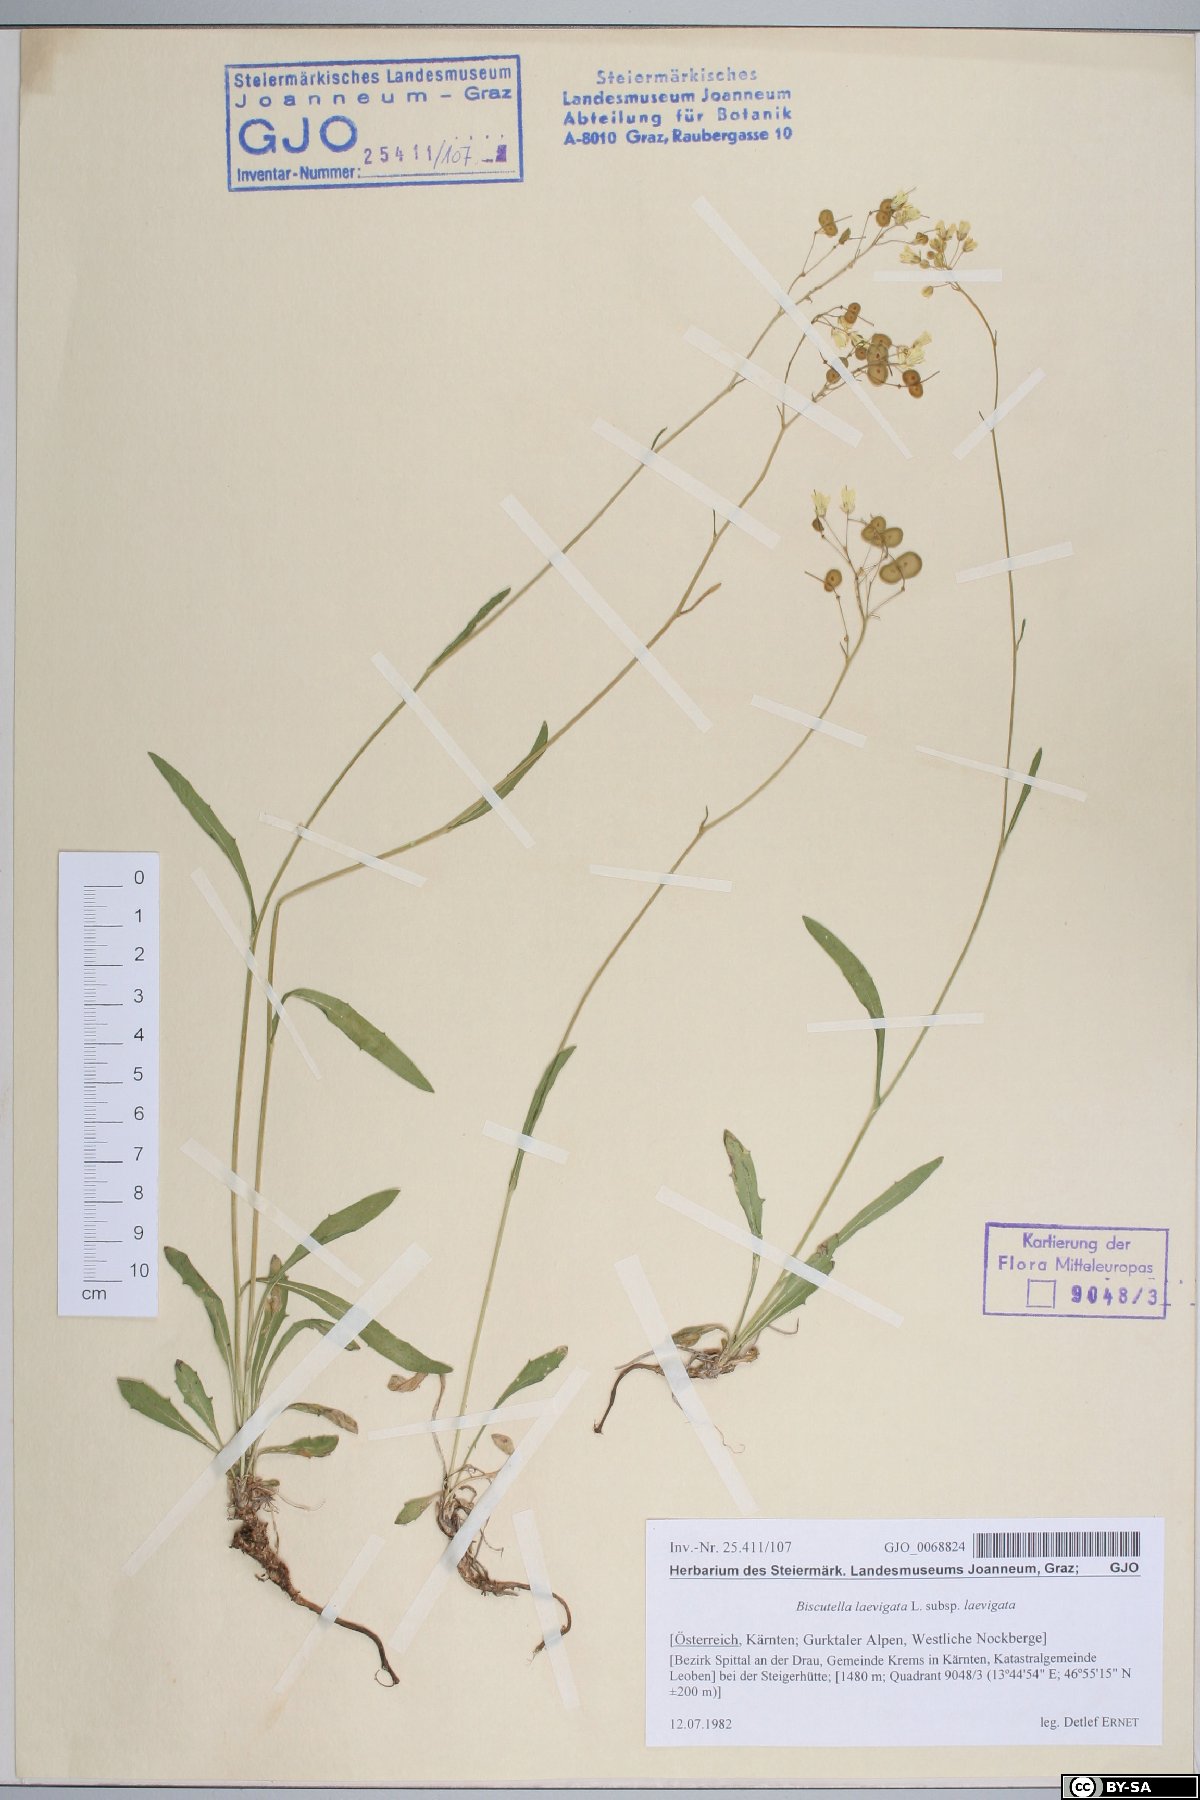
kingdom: Plantae
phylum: Tracheophyta
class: Magnoliopsida
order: Brassicales
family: Brassicaceae
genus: Biscutella
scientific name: Biscutella laevigata
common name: Buckler mustard
